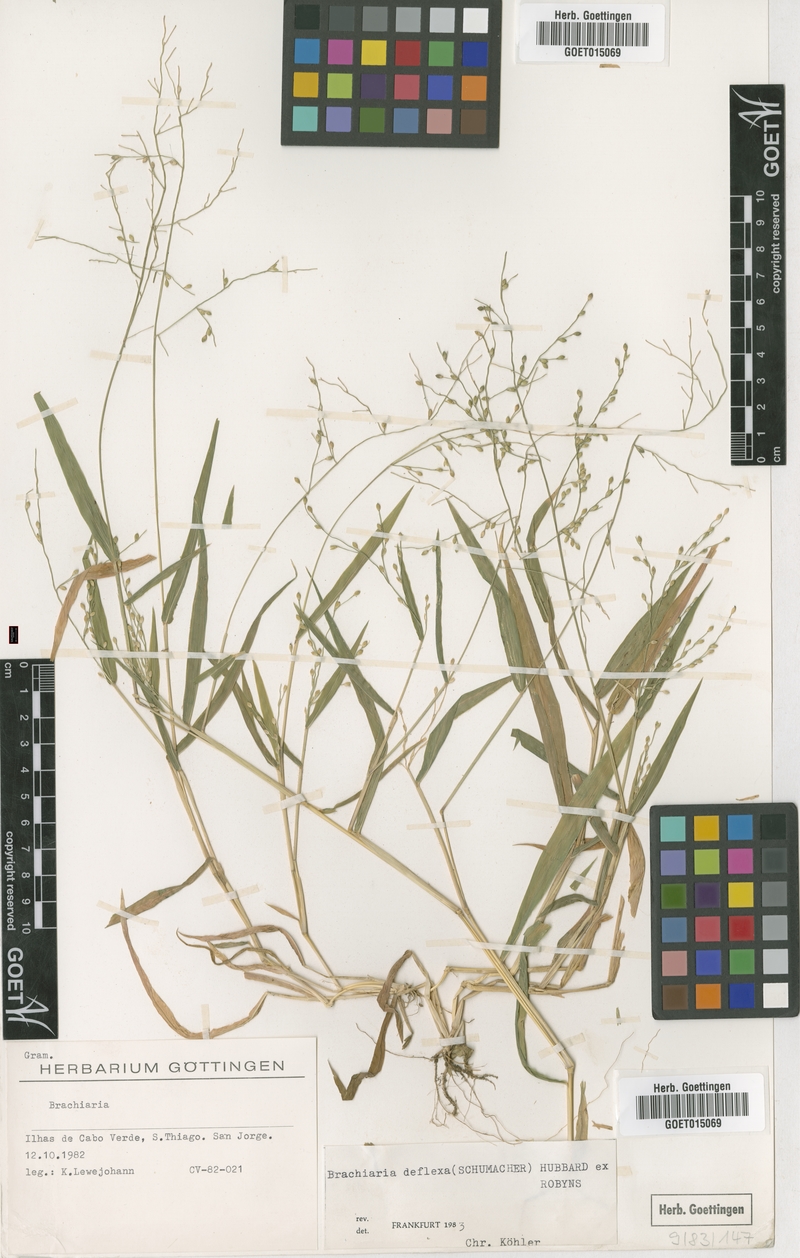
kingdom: Plantae
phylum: Tracheophyta
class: Liliopsida
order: Poales
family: Poaceae
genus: Urochloa
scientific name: Urochloa deflexa
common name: Guinea millet
